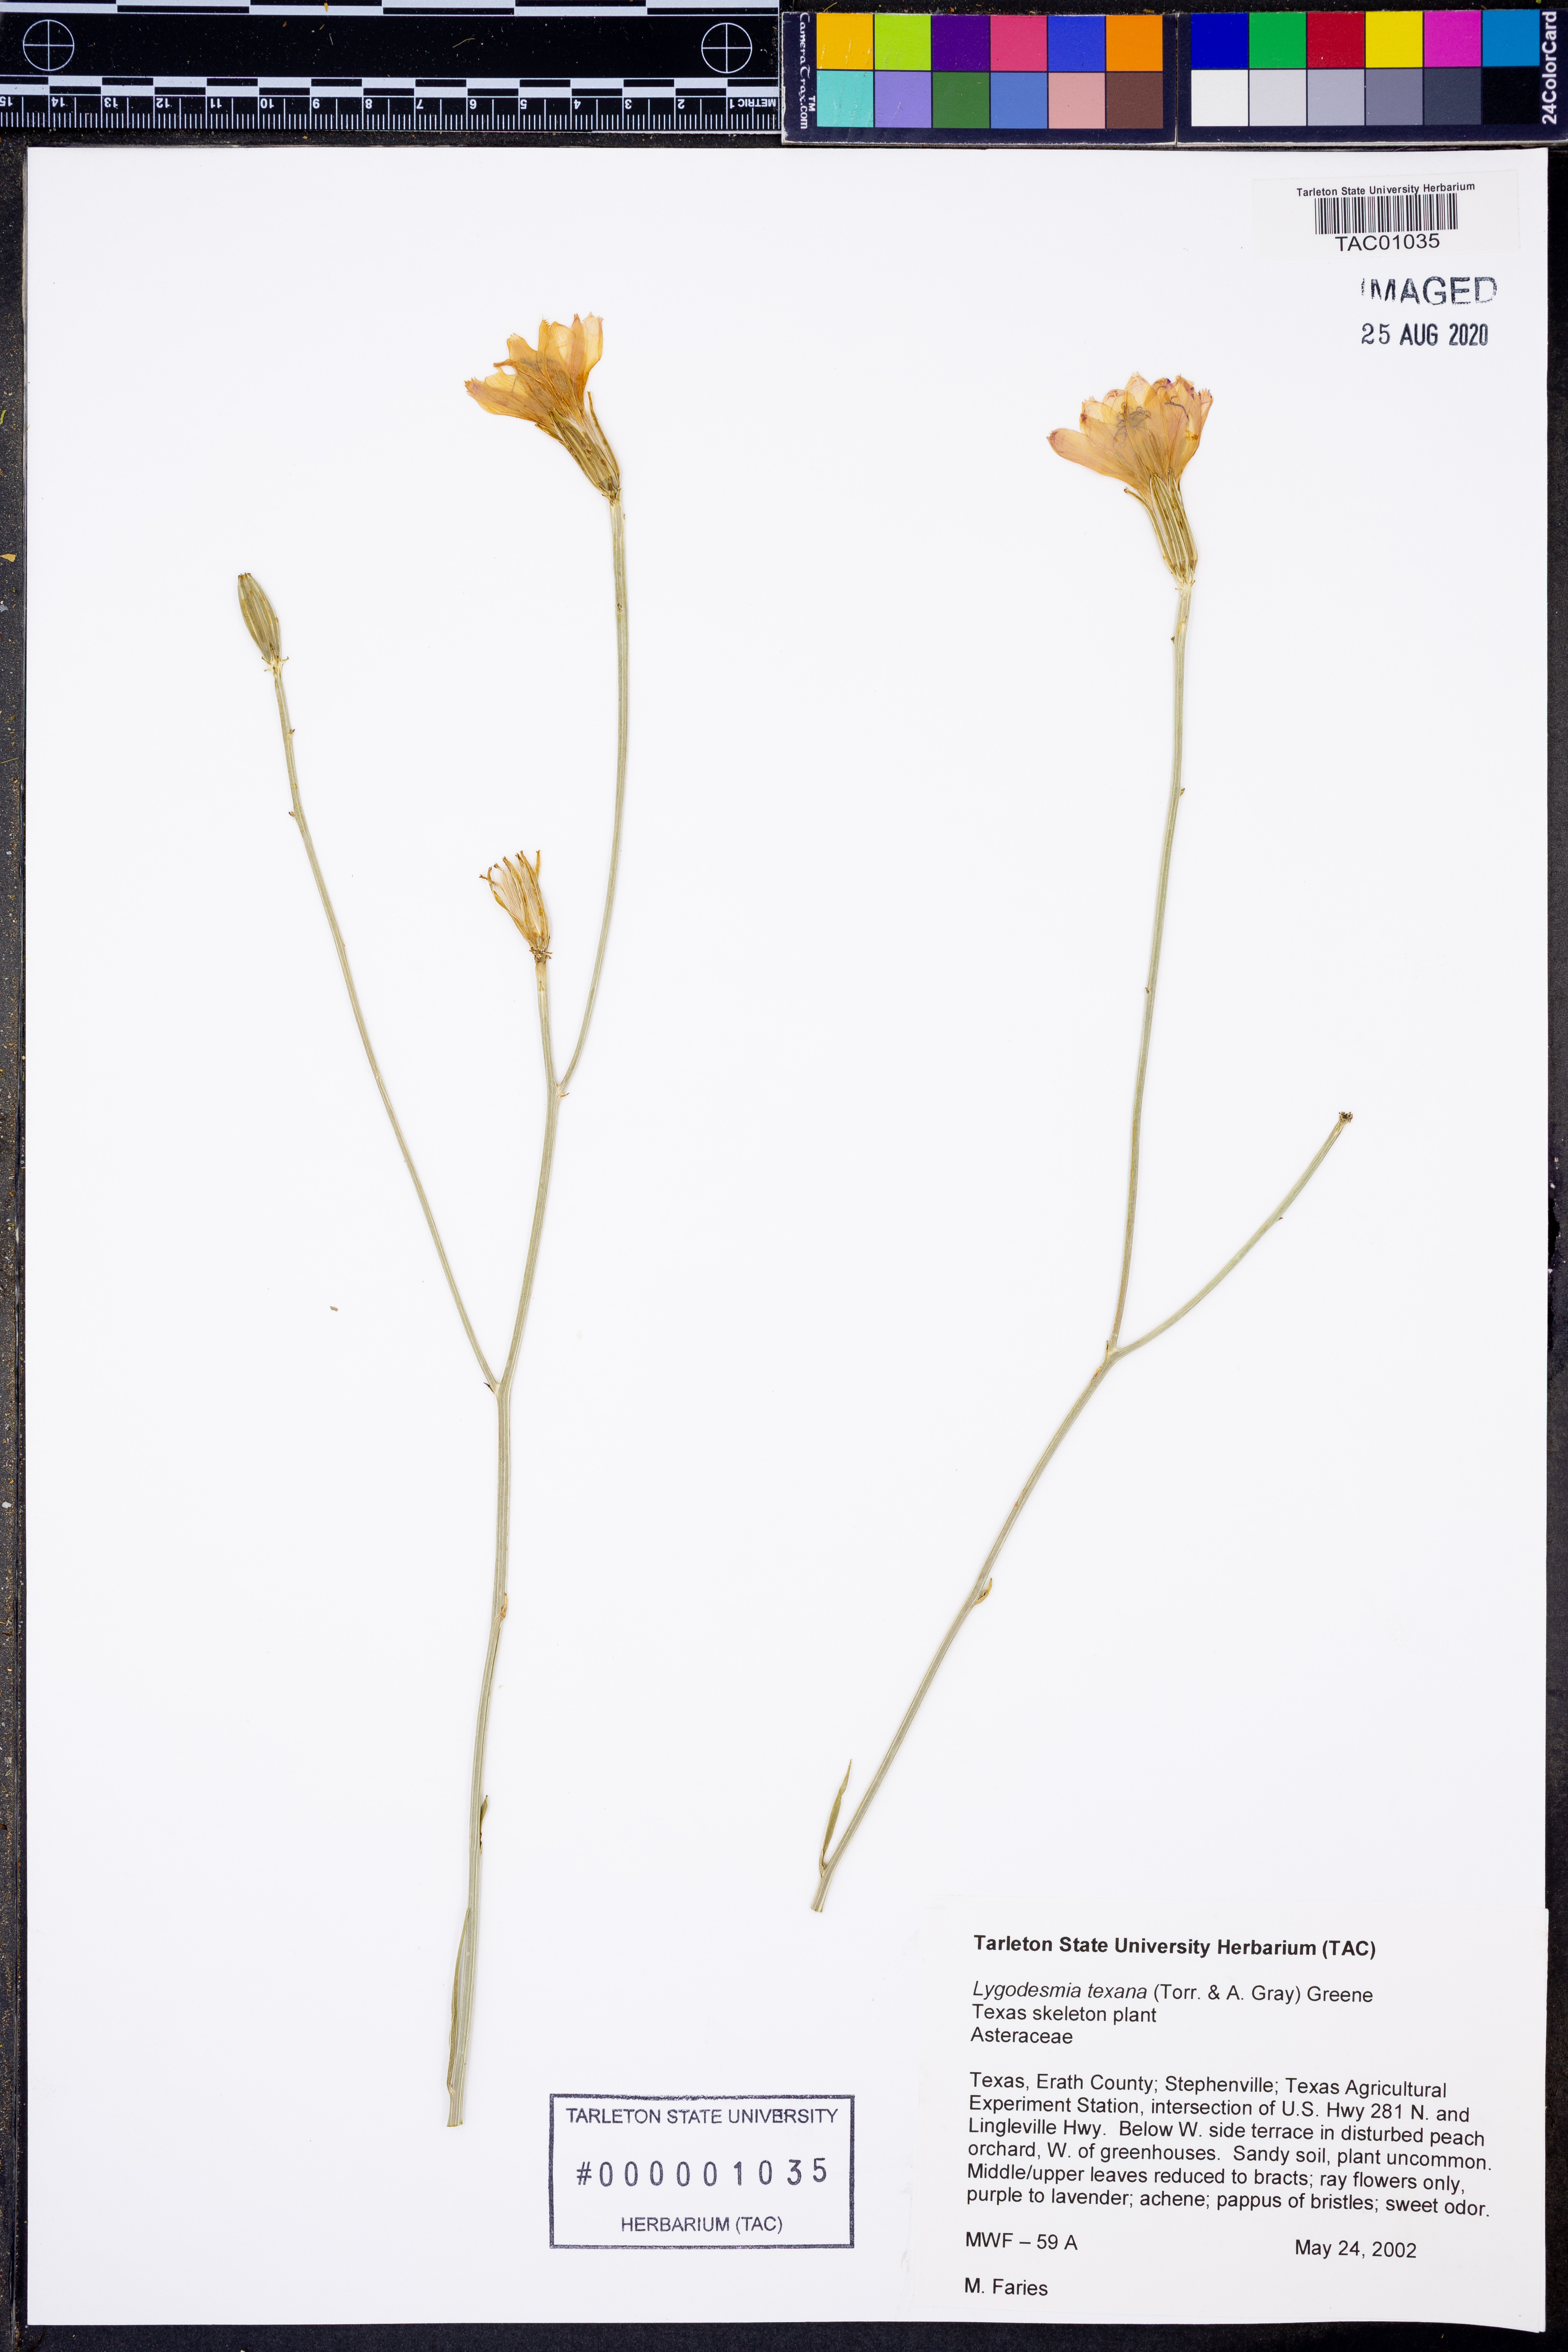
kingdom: Plantae
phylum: Tracheophyta
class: Magnoliopsida
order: Asterales
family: Asteraceae
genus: Lygodesmia
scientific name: Lygodesmia texana
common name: Texas skeleton-plant
